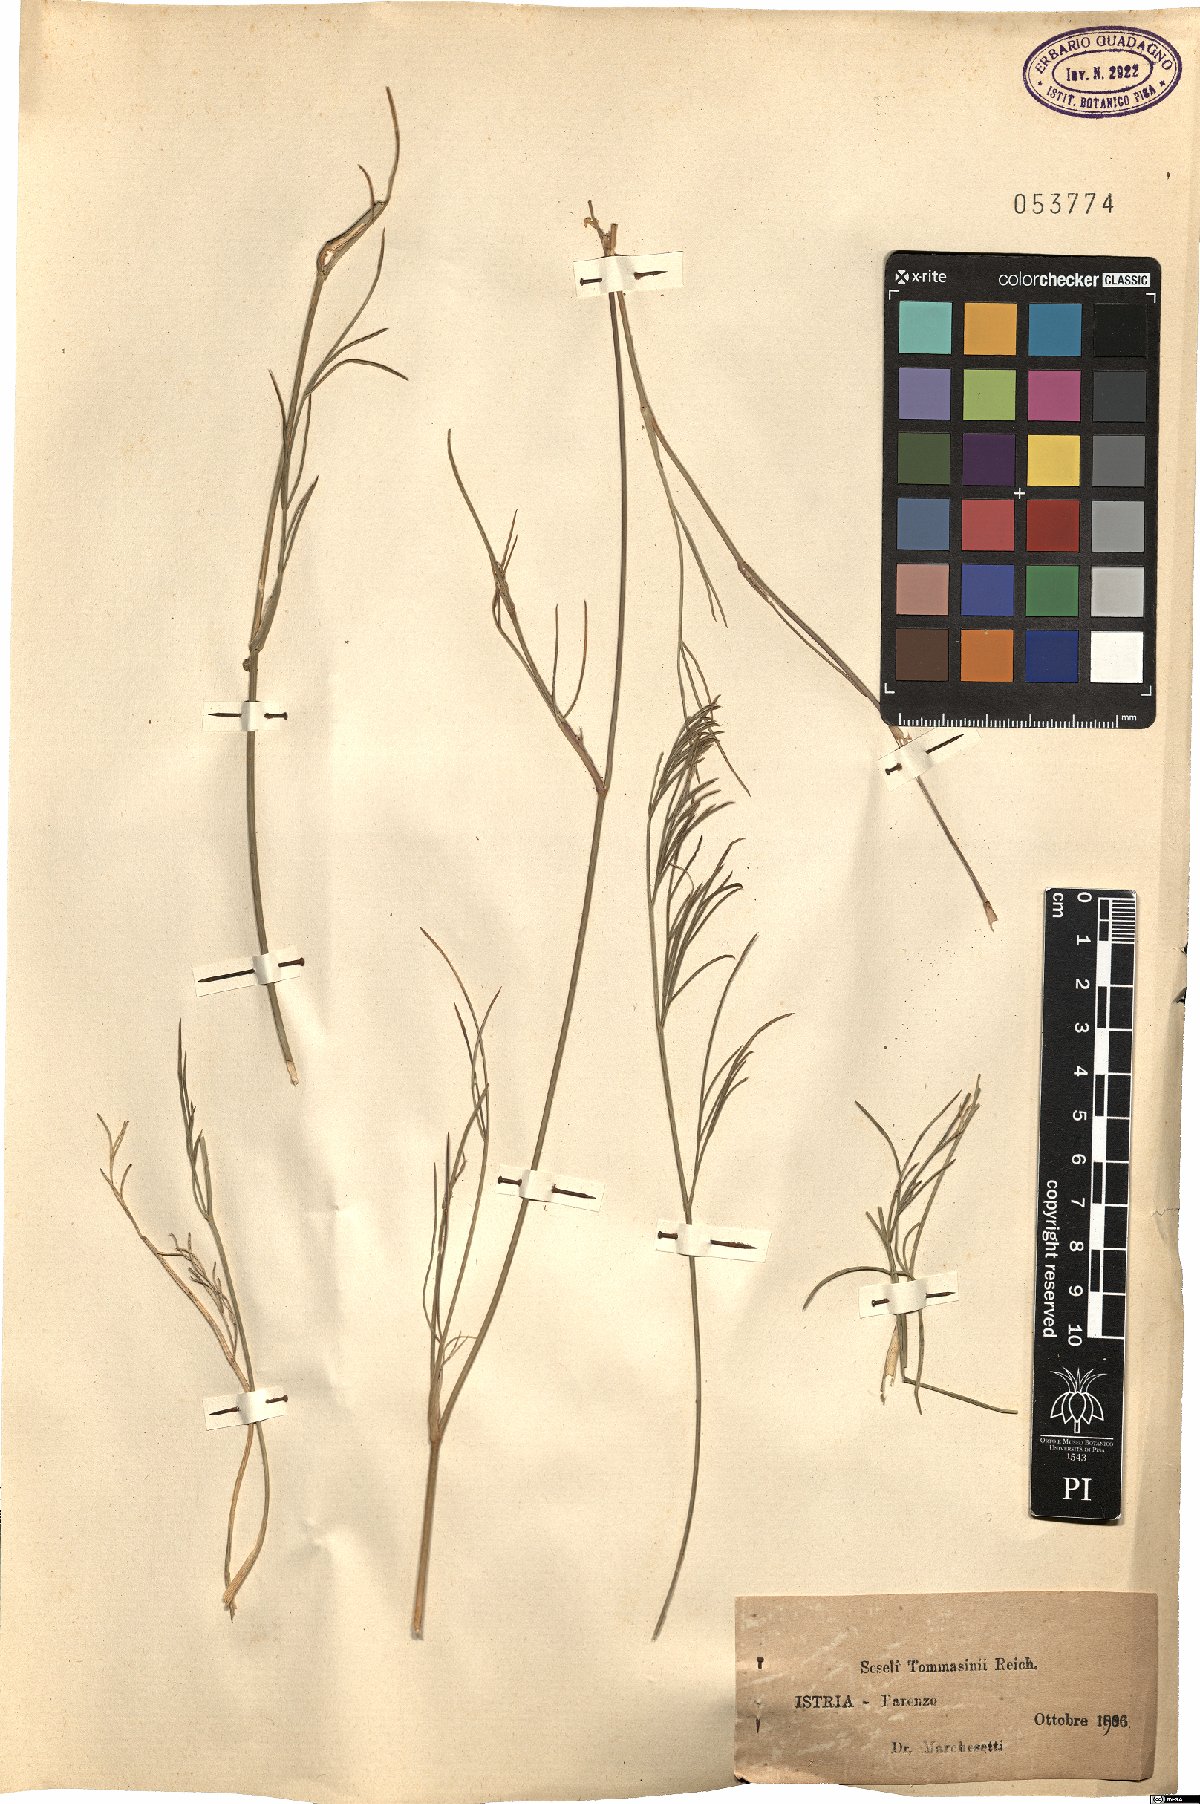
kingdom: Plantae
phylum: Tracheophyta
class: Magnoliopsida
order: Apiales
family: Apiaceae
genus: Seseli
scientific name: Seseli montanum
